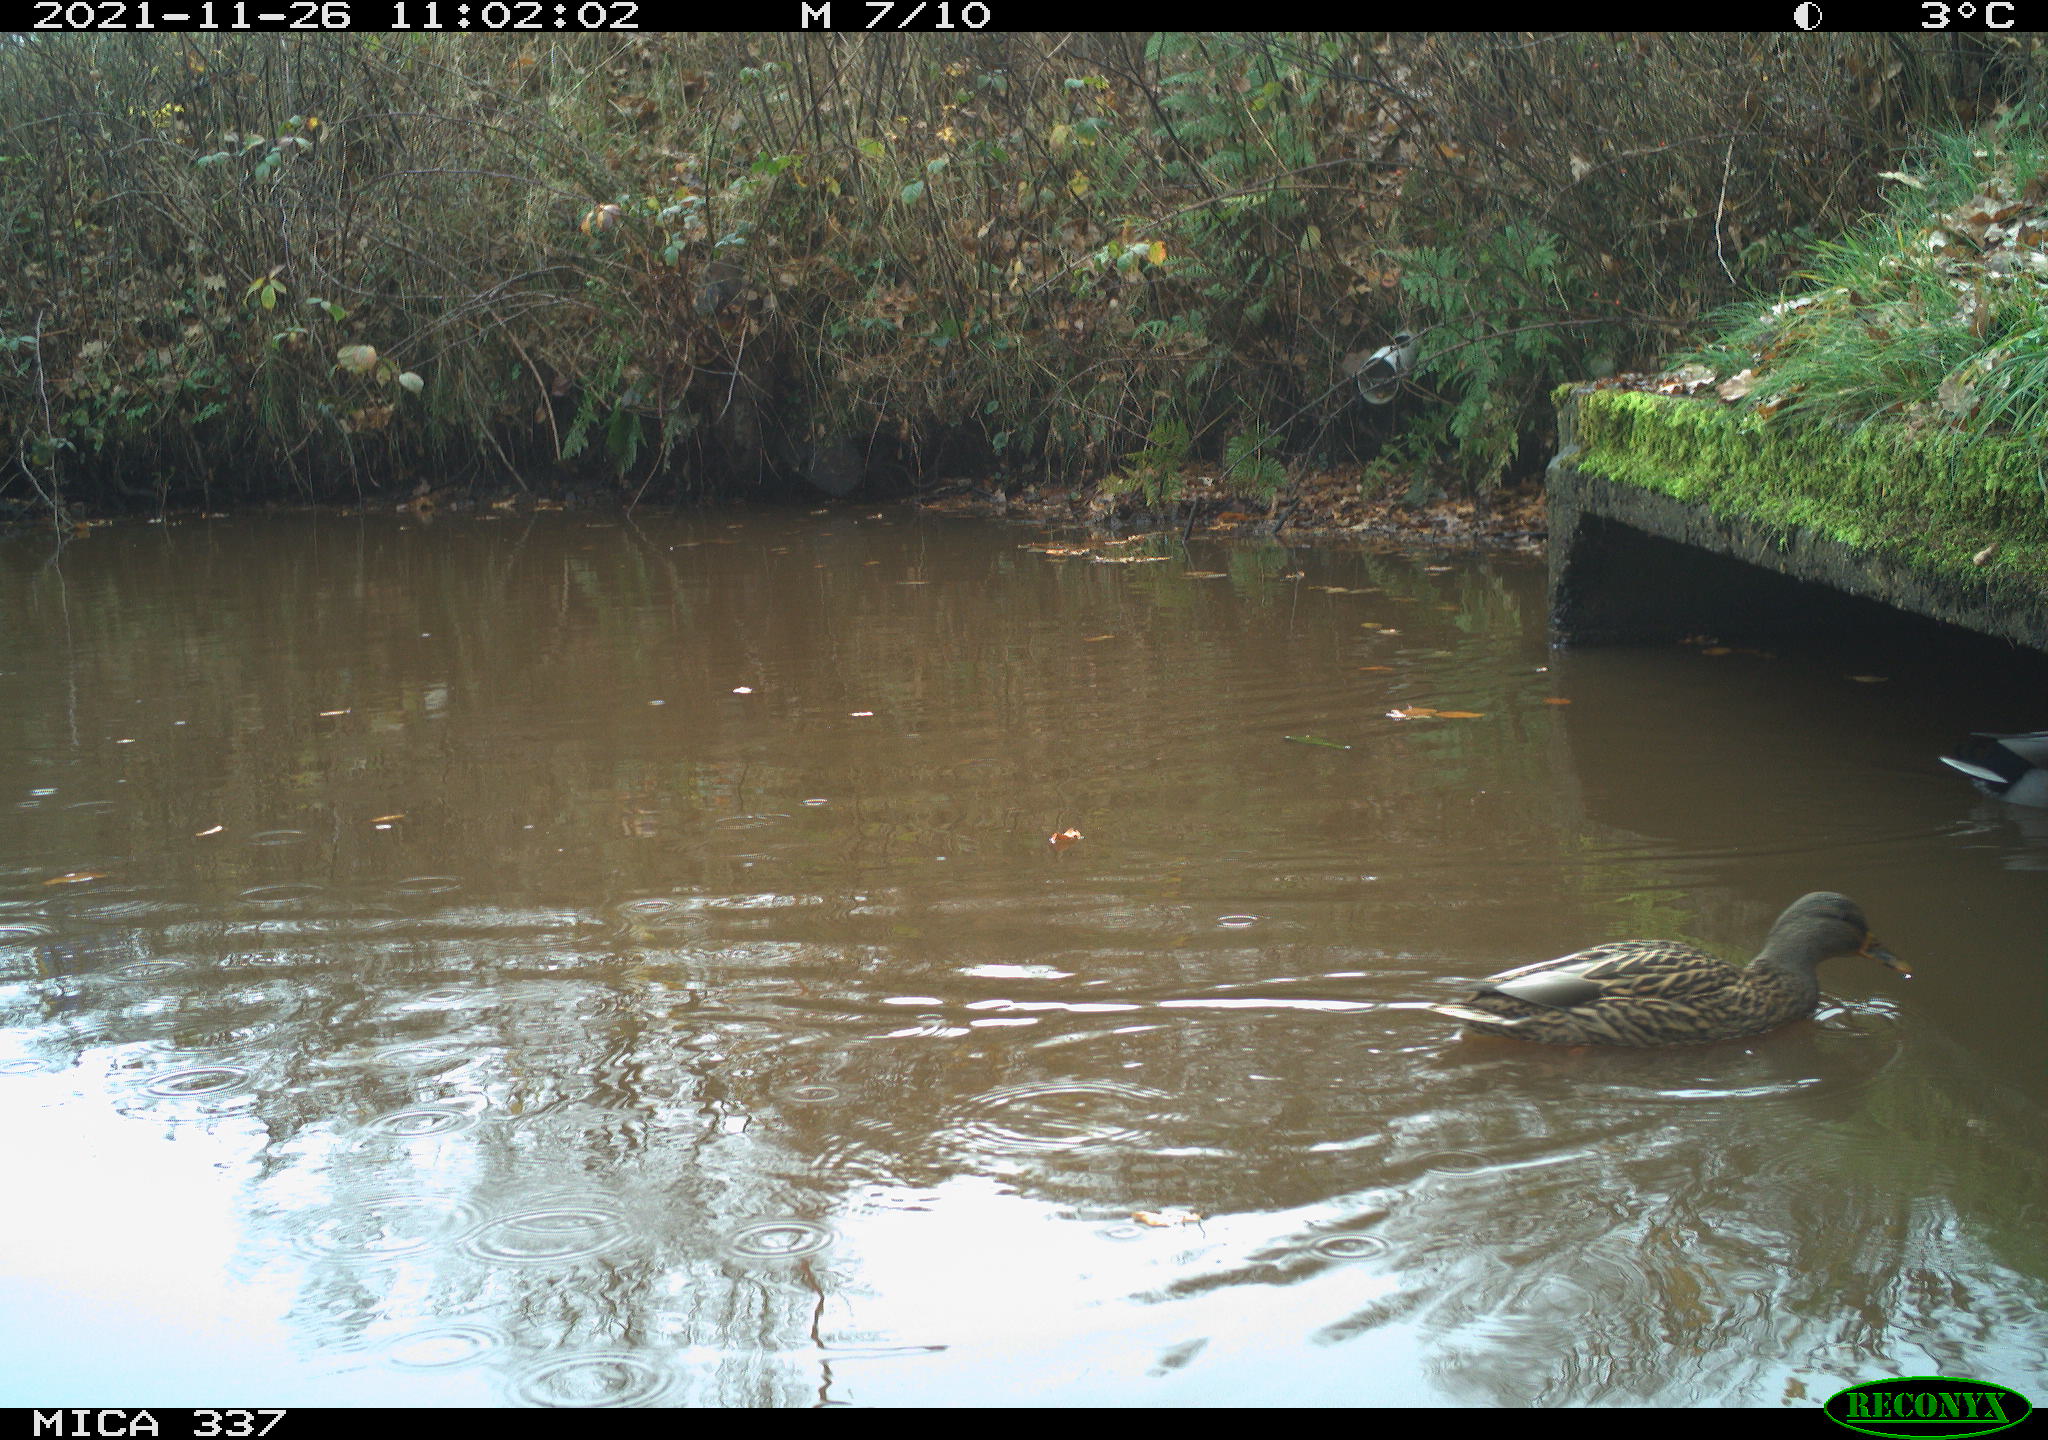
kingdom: Animalia
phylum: Chordata
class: Aves
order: Anseriformes
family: Anatidae
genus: Anas
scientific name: Anas platyrhynchos
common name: Mallard
